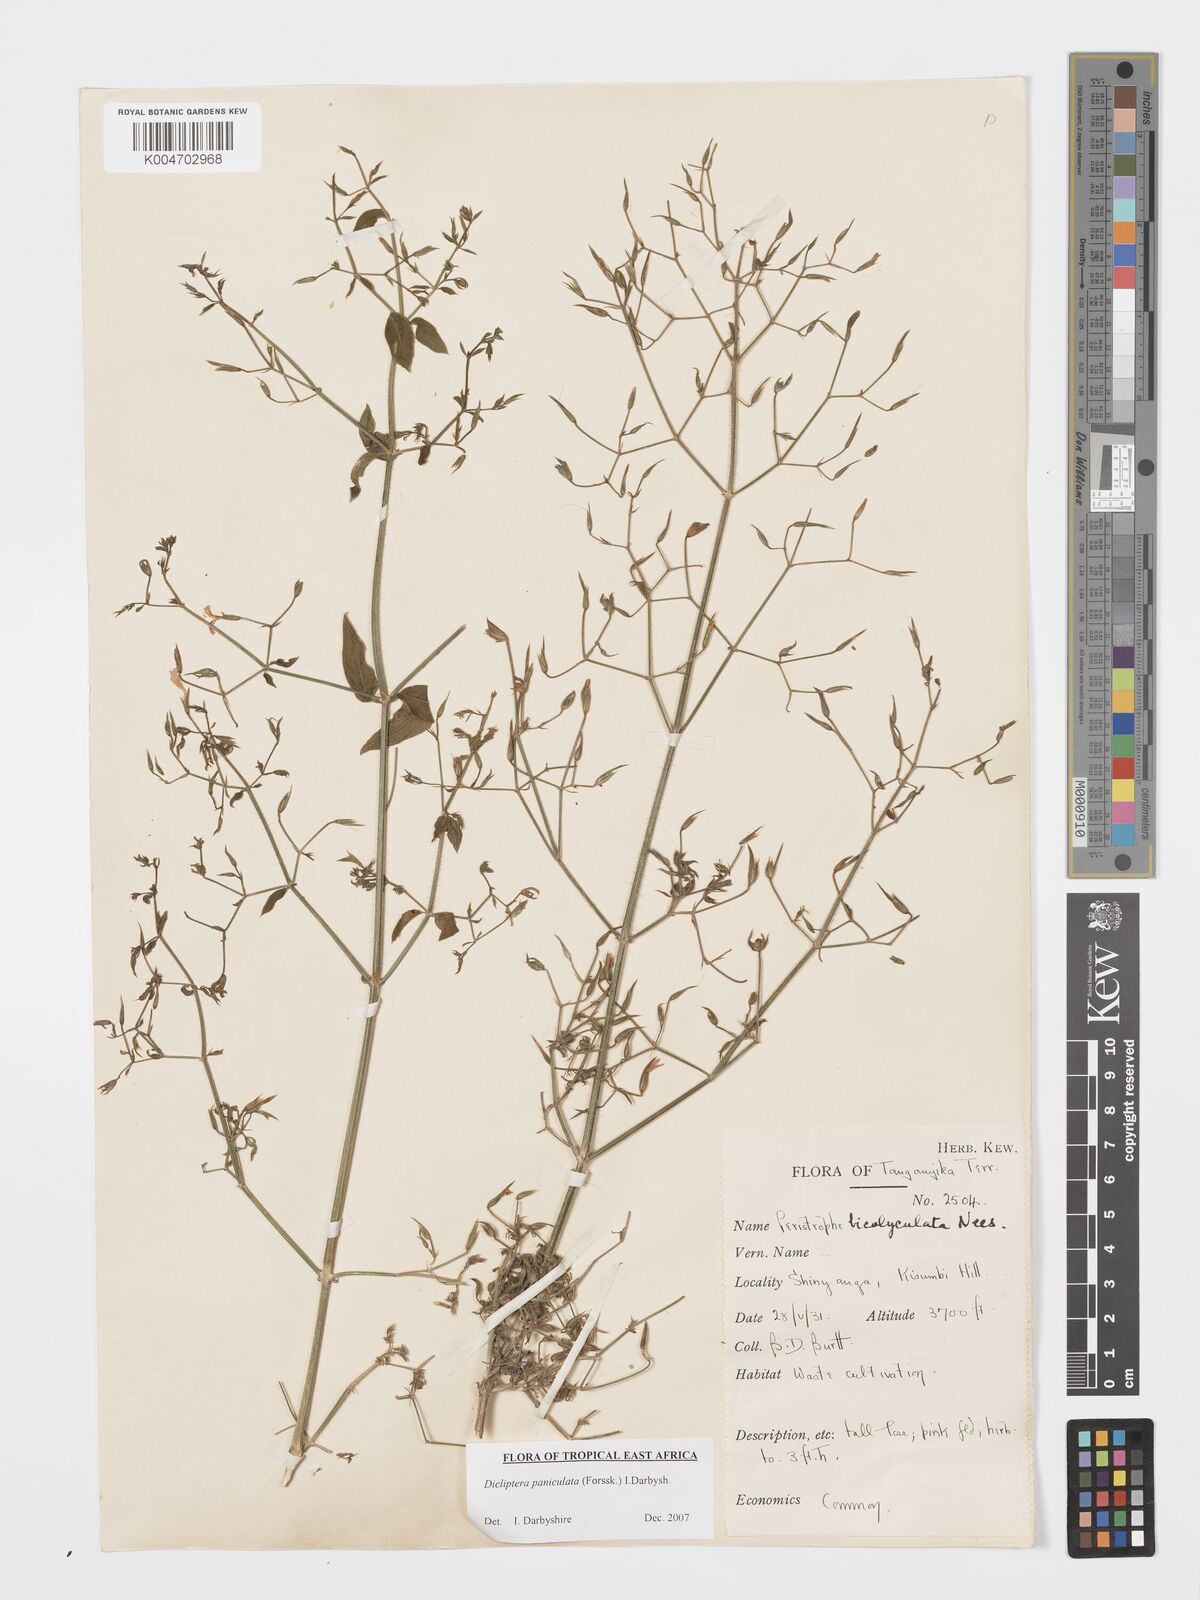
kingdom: Plantae
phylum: Tracheophyta
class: Magnoliopsida
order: Lamiales
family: Acanthaceae
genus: Dicliptera
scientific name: Dicliptera paniculata
